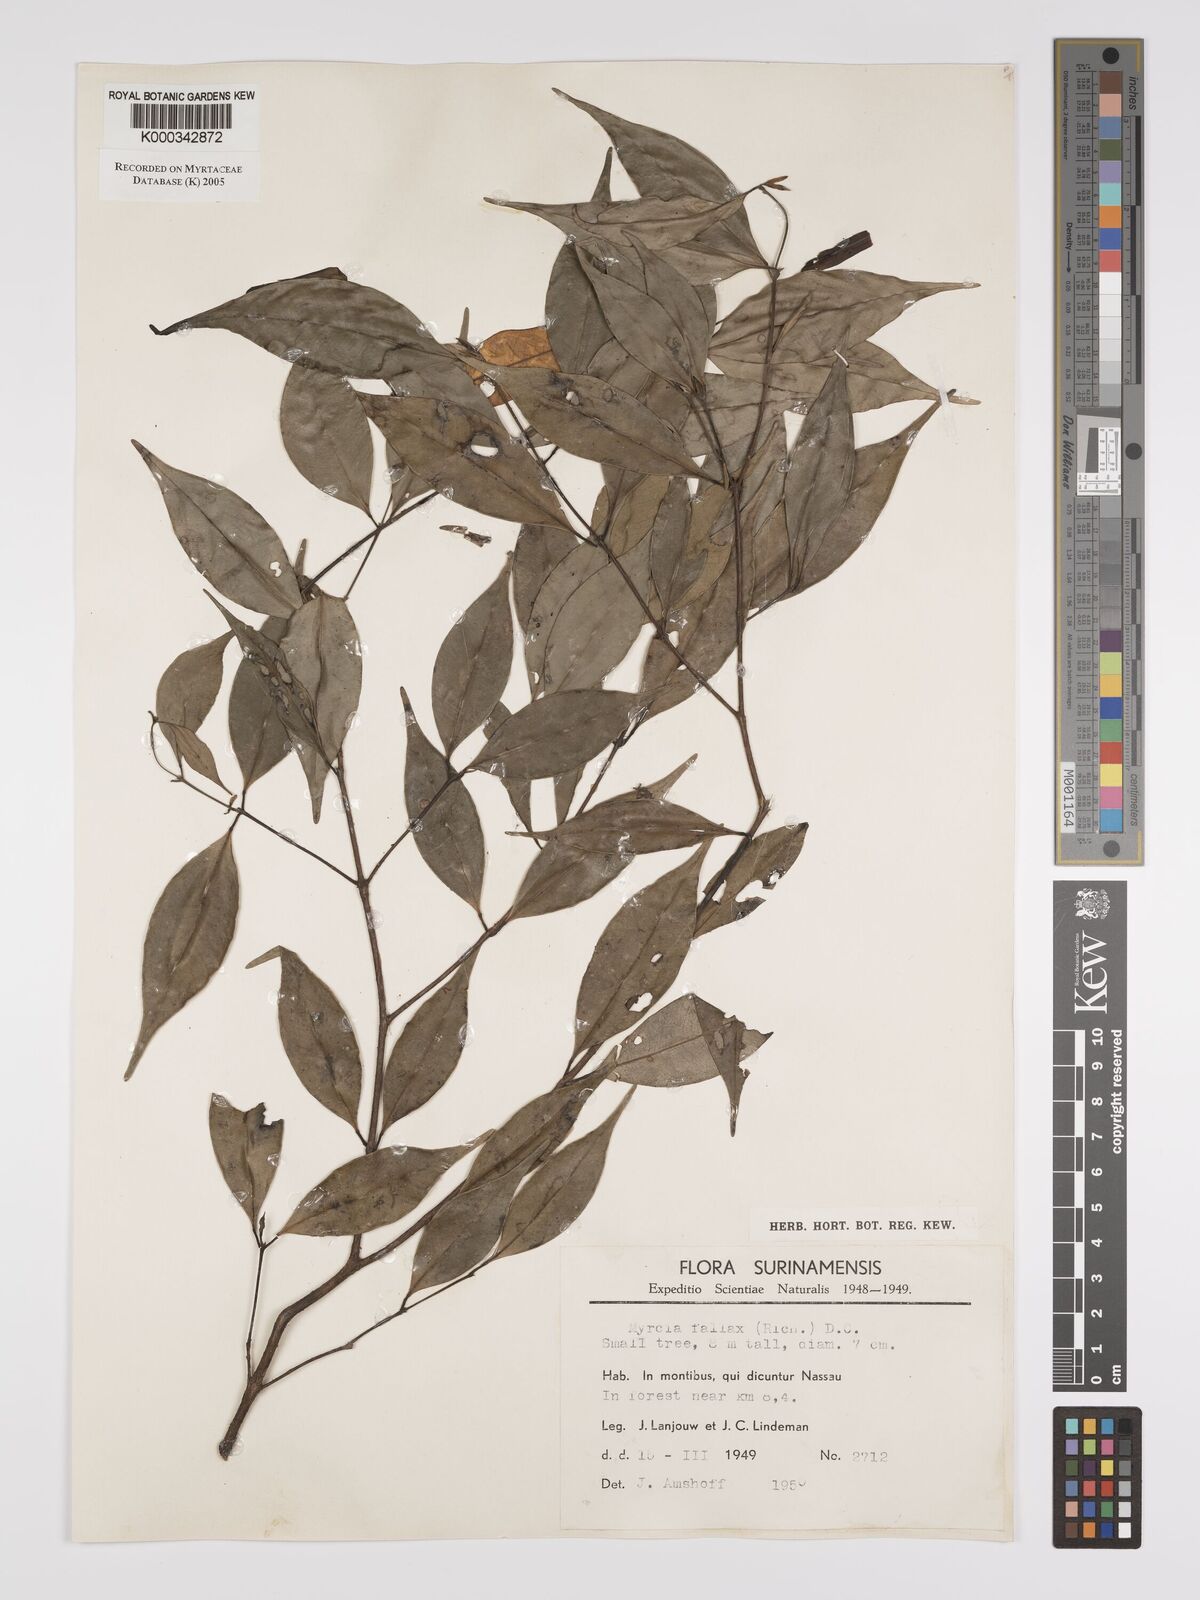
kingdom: Plantae
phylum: Tracheophyta
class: Magnoliopsida
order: Myrtales
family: Myrtaceae
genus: Myrcia
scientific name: Myrcia splendens
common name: Surinam cherry
